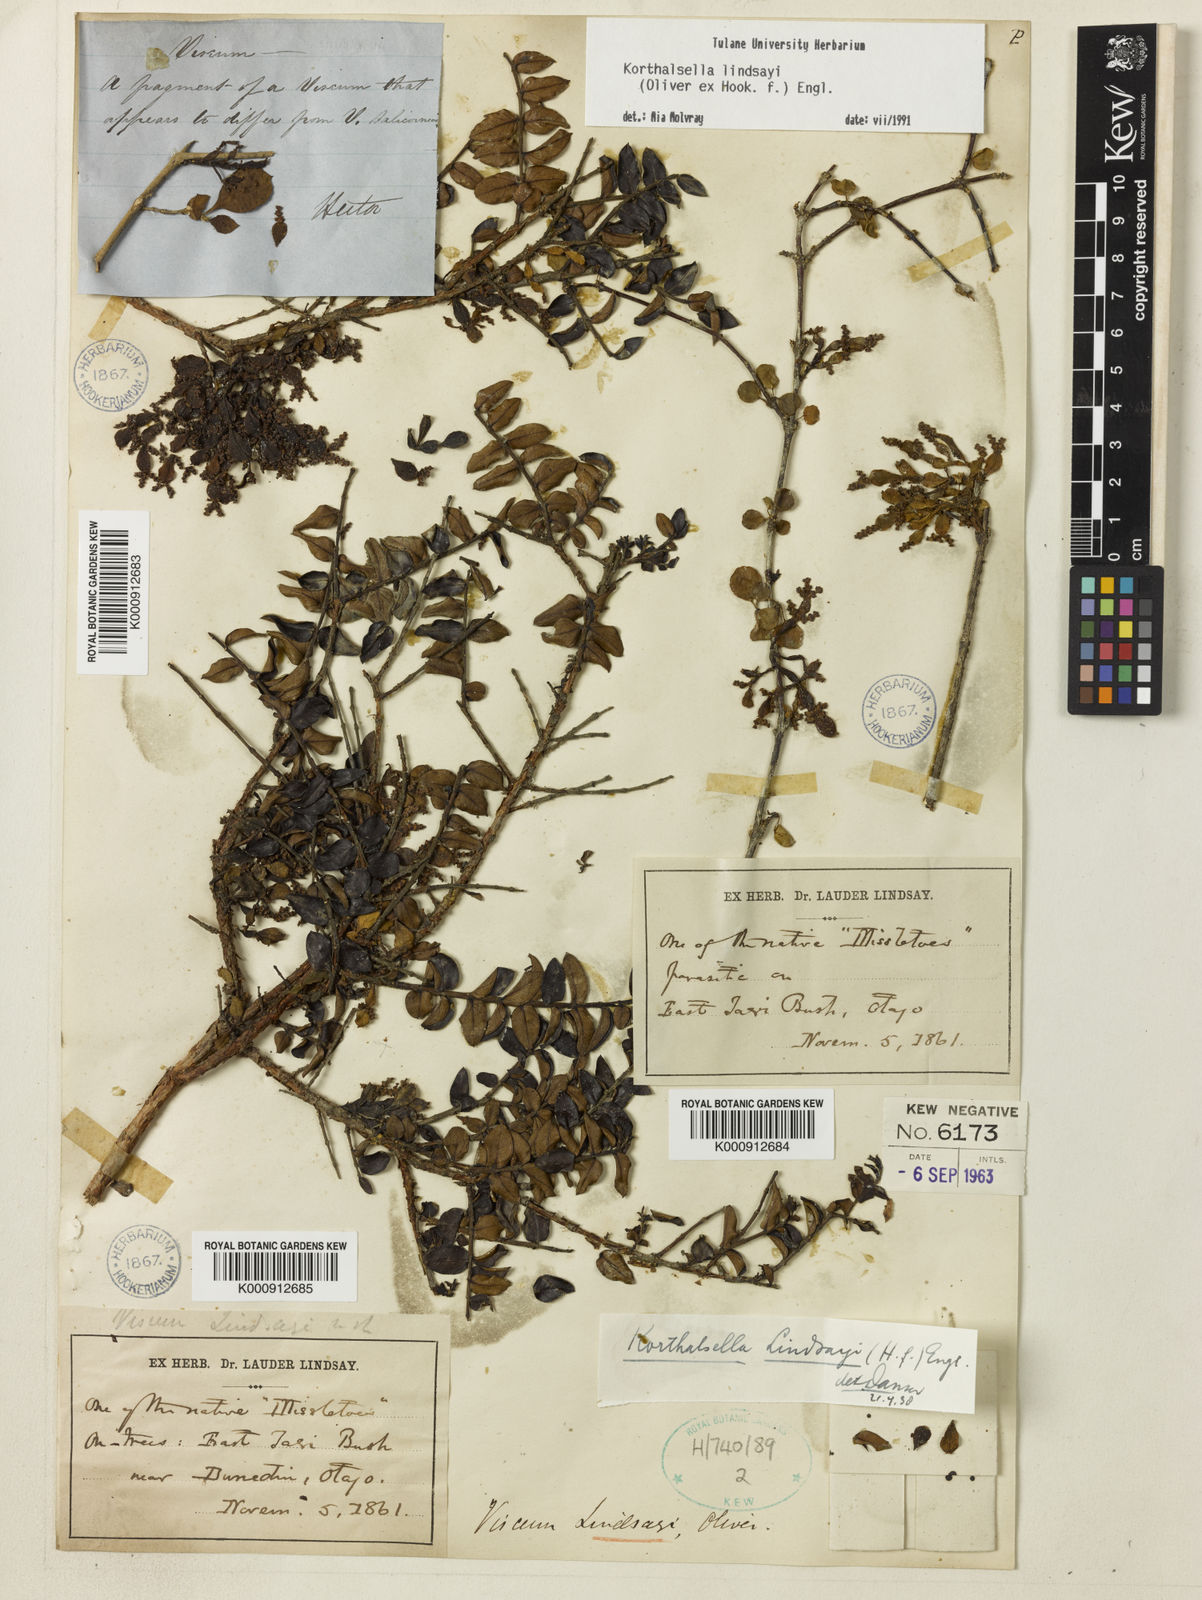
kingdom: Plantae
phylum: Tracheophyta
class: Magnoliopsida
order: Santalales
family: Viscaceae
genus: Korthalsella
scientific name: Korthalsella lindsayi
